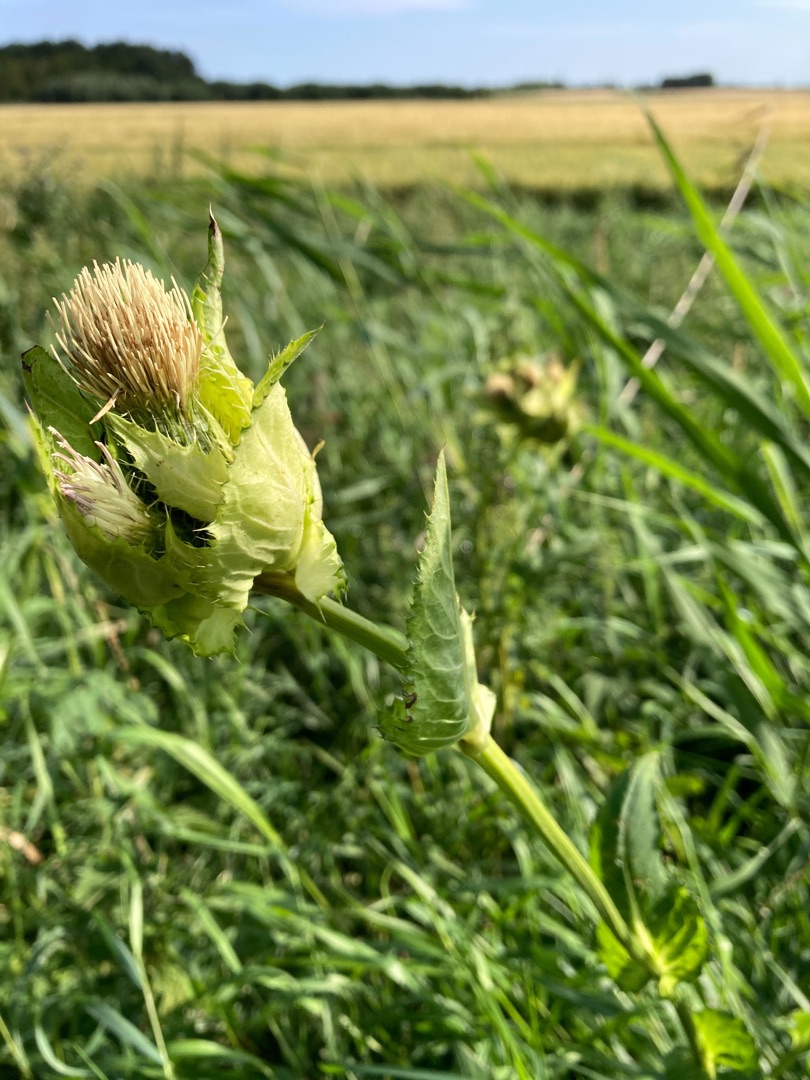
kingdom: Plantae
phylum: Tracheophyta
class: Magnoliopsida
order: Asterales
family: Asteraceae
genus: Cirsium
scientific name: Cirsium oleraceum
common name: Kål-tidsel
